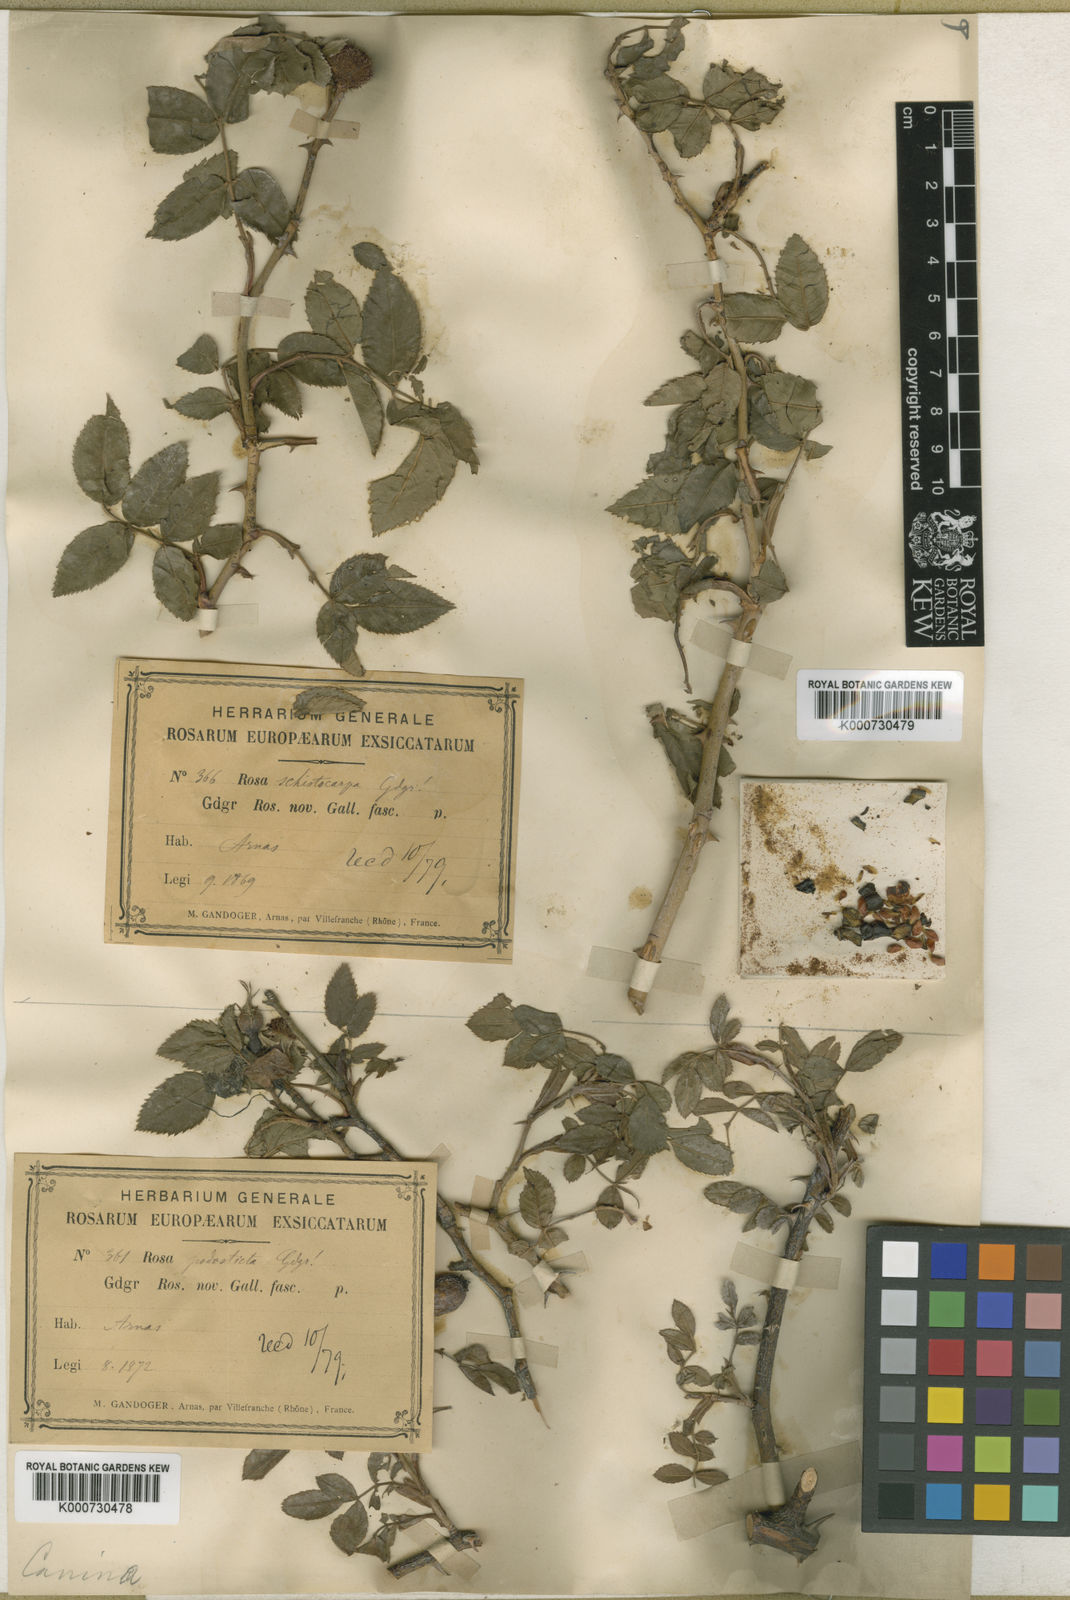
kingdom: Plantae
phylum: Tracheophyta
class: Magnoliopsida
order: Rosales
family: Rosaceae
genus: Rosa
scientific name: Rosa canina
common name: Dog rose
